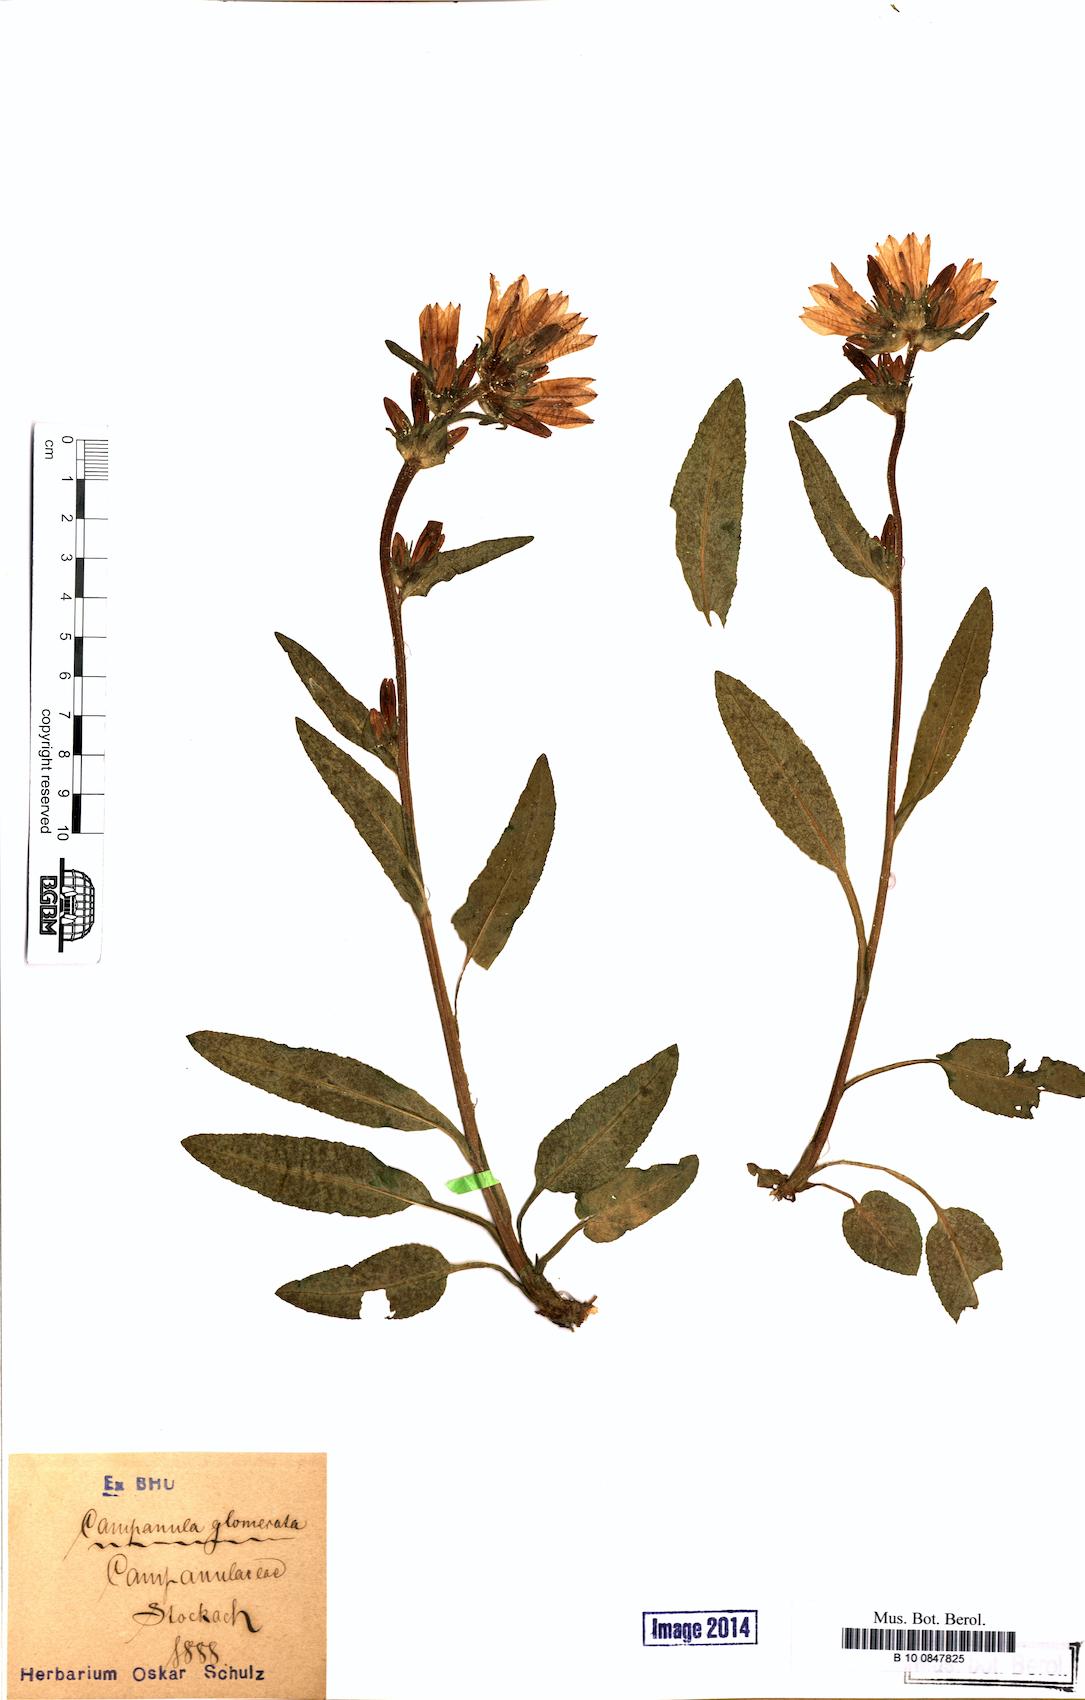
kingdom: Plantae
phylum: Tracheophyta
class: Magnoliopsida
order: Asterales
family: Campanulaceae
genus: Campanula
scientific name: Campanula glomerata
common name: Clustered bellflower
